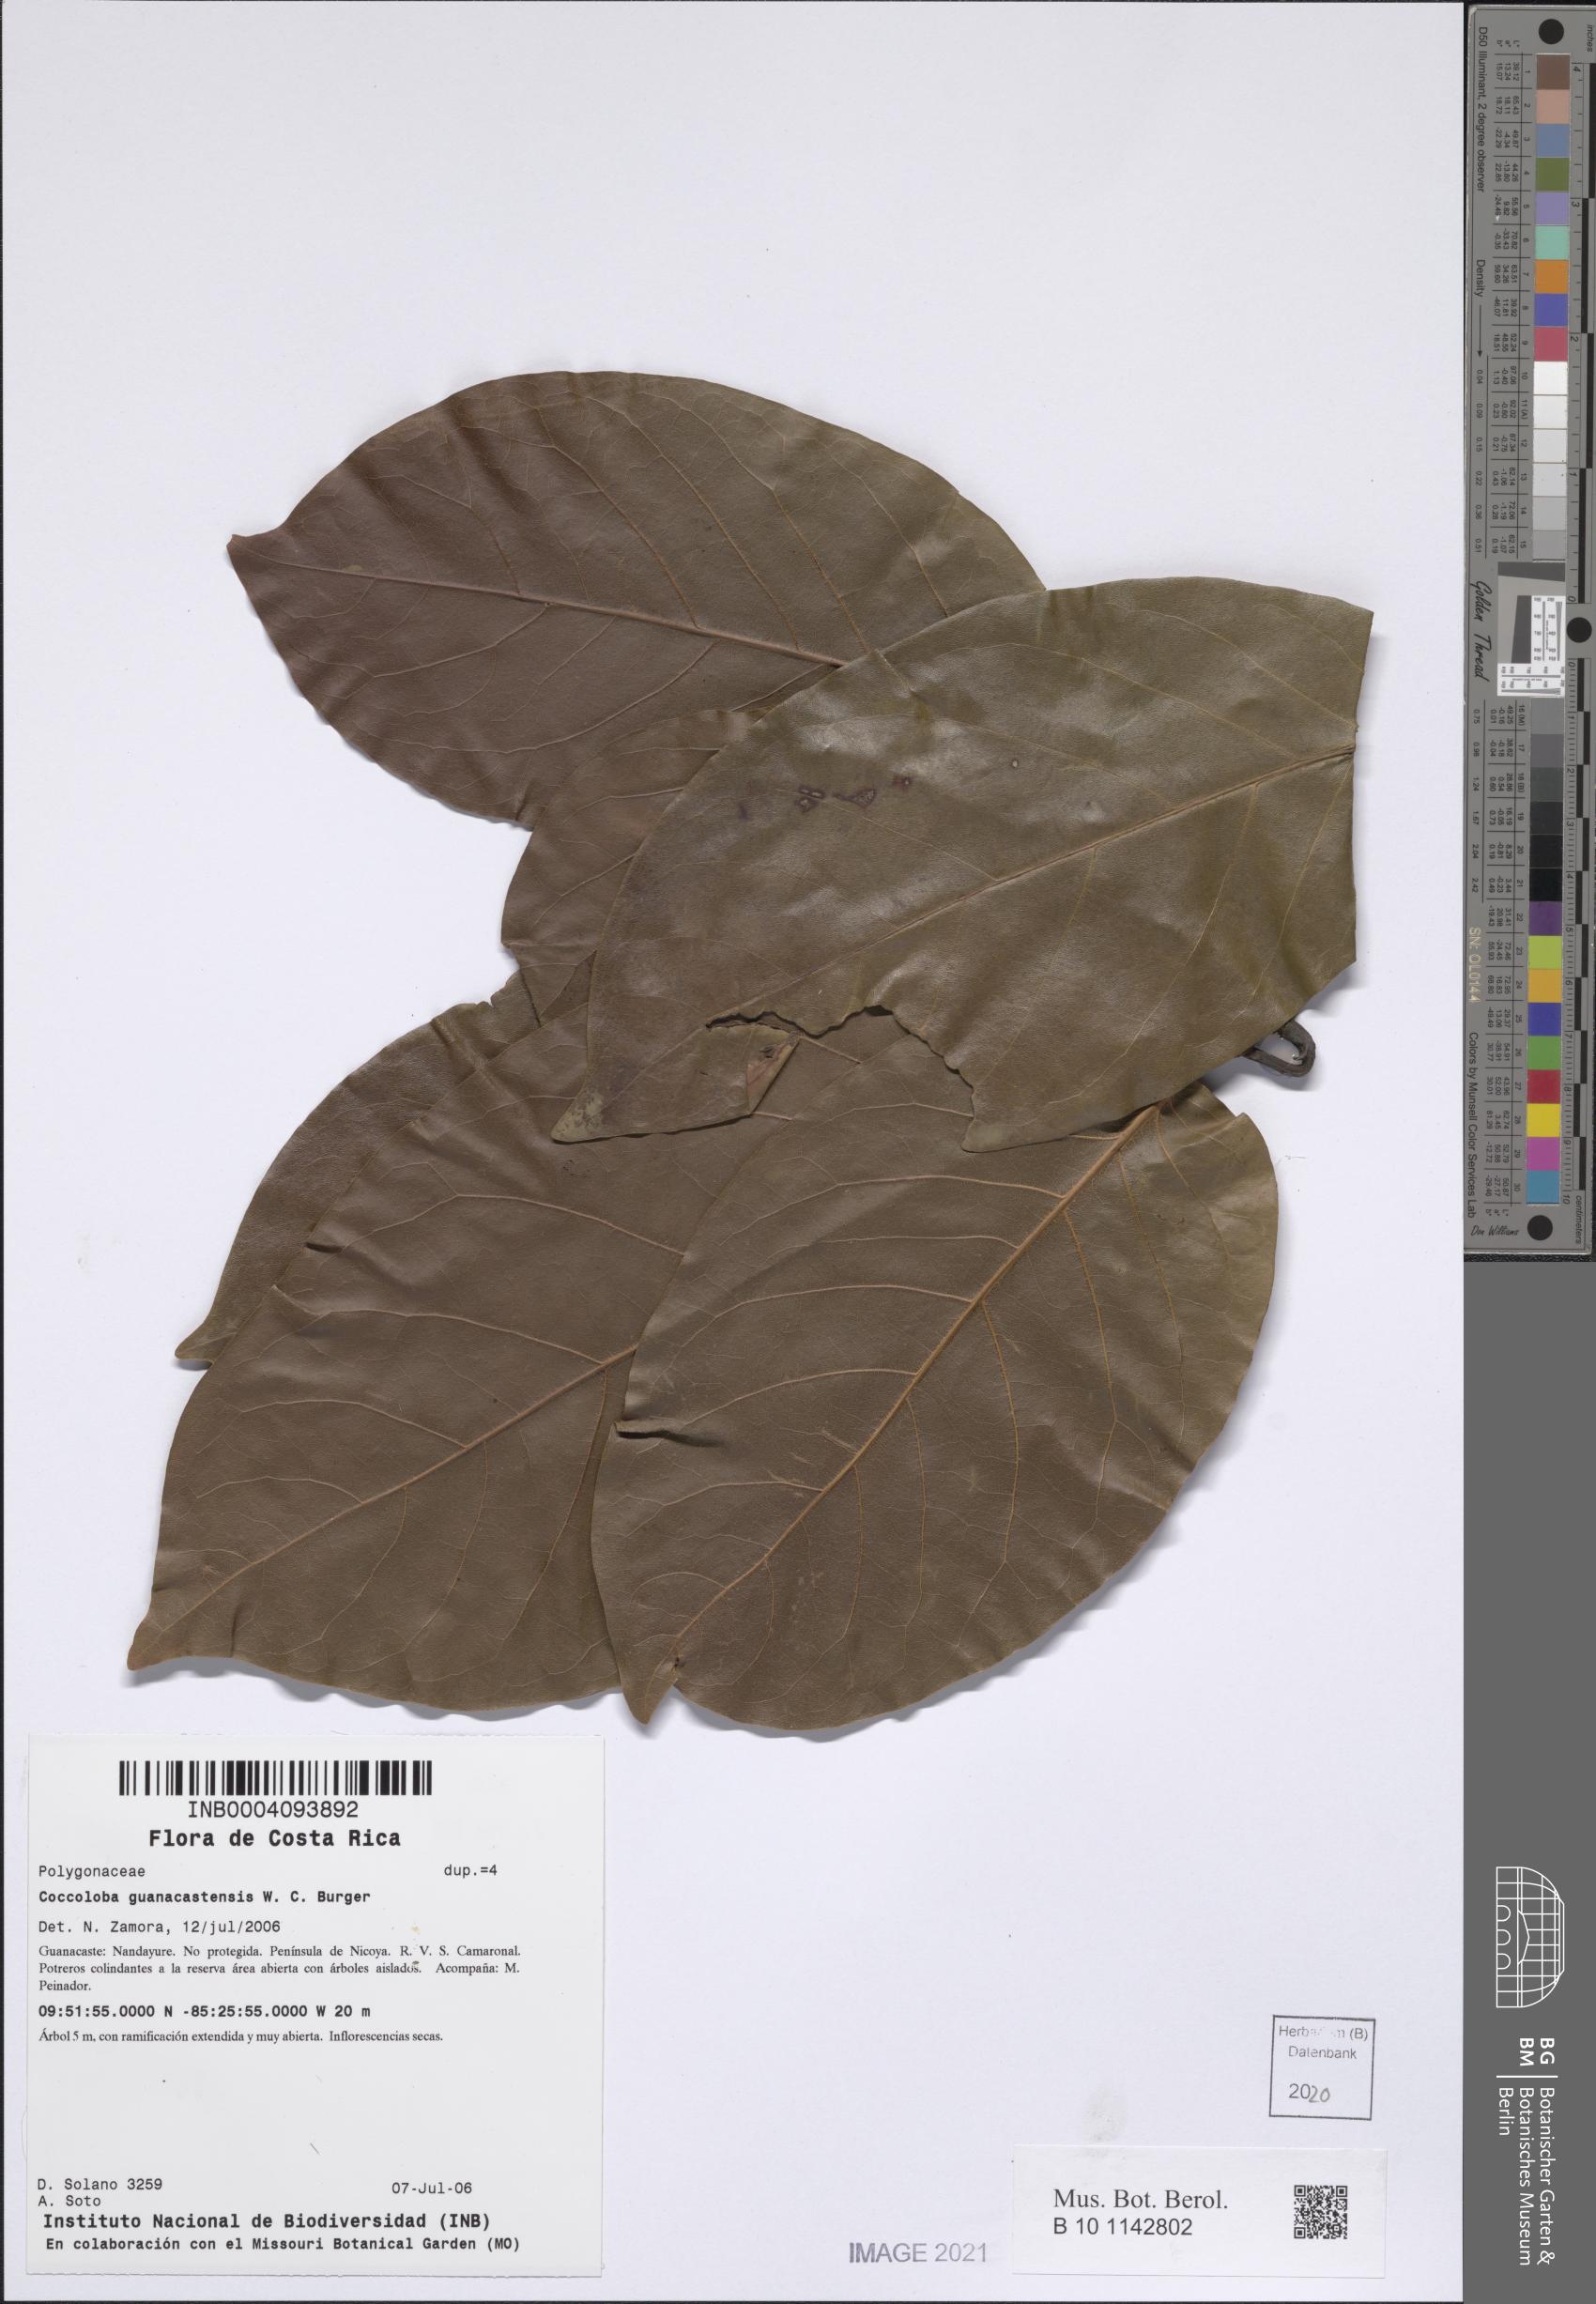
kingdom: Plantae
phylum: Tracheophyta
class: Magnoliopsida
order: Caryophyllales
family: Polygonaceae
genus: Coccoloba
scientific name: Coccoloba guanacastensis
